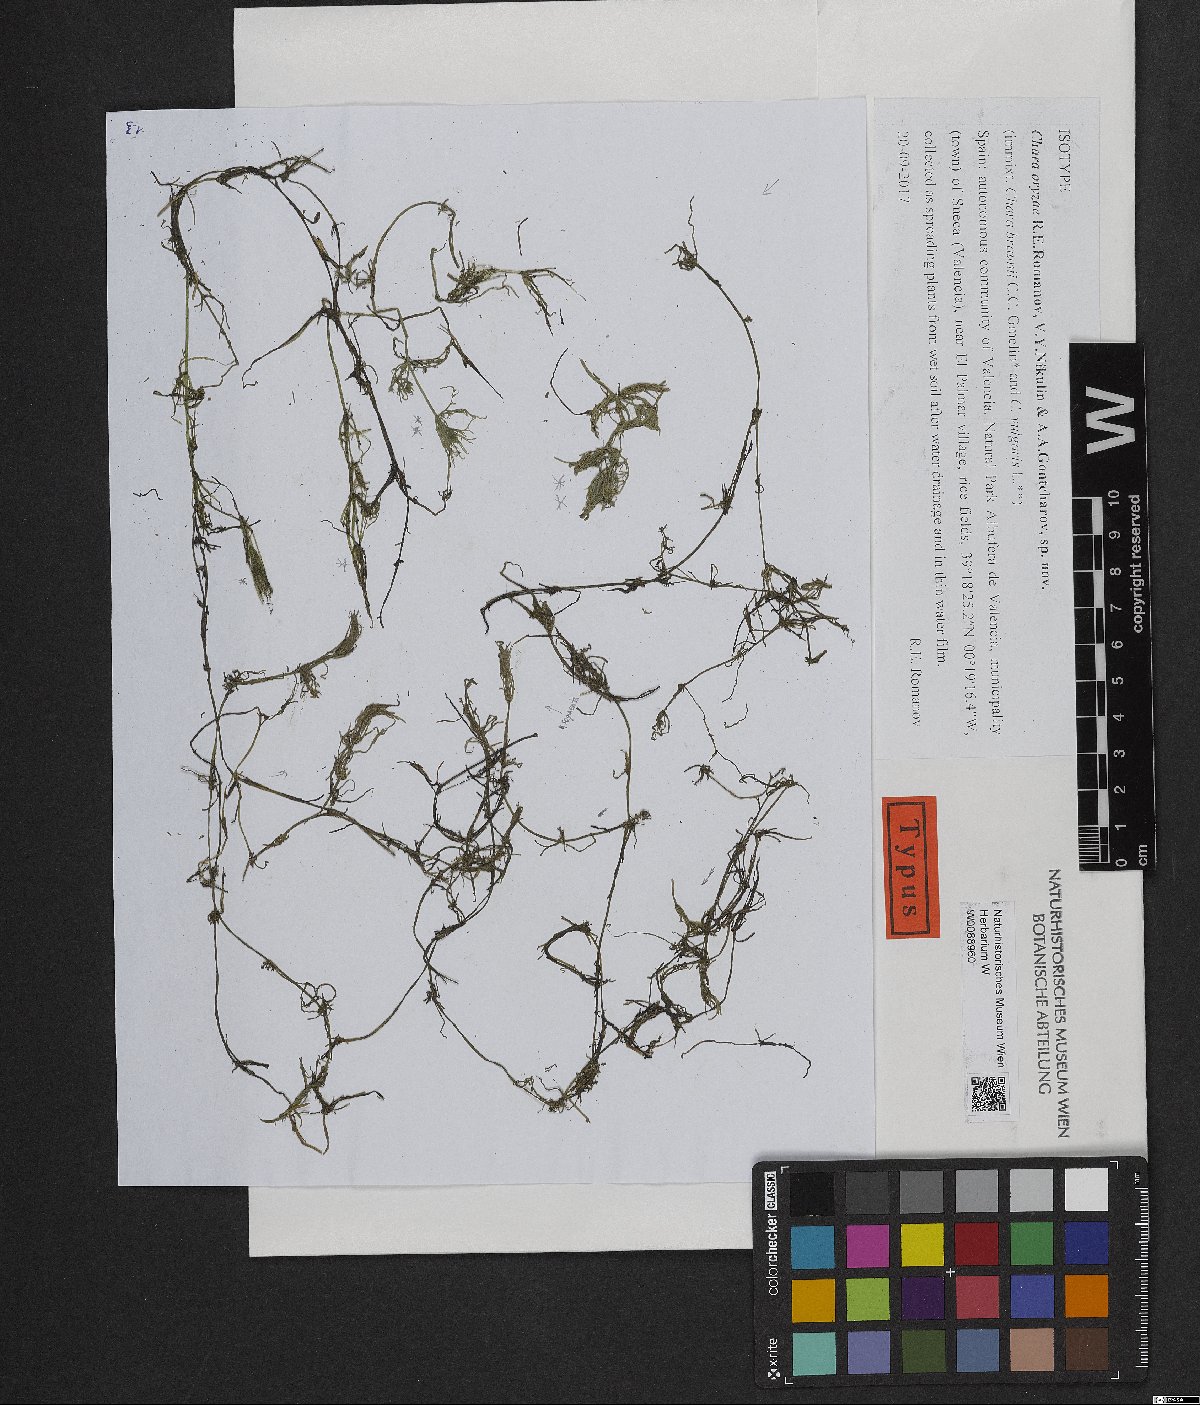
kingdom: Plantae
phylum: Charophyta
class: Charophyceae
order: Charales
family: Characeae
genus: Chara
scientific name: Chara
